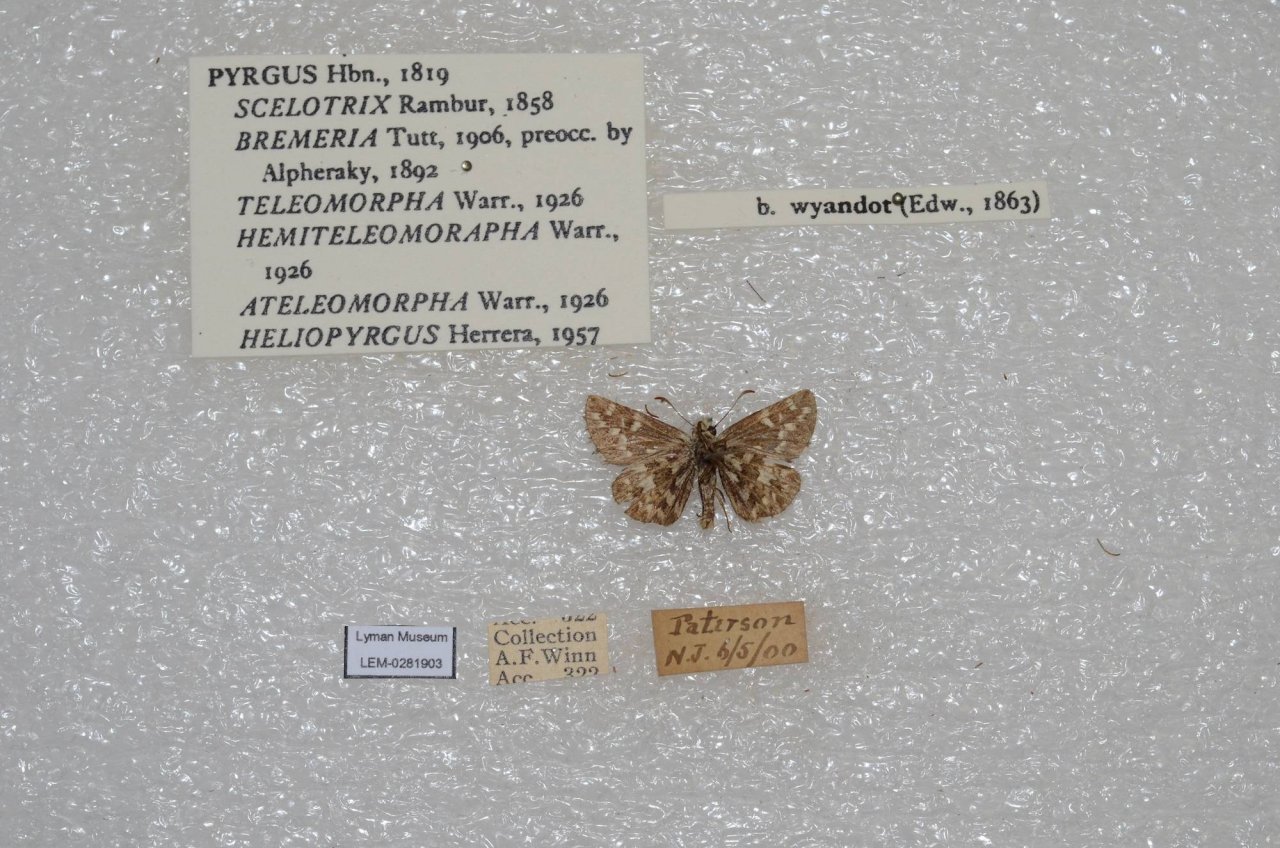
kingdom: Animalia
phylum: Arthropoda
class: Insecta
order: Lepidoptera
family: Hesperiidae
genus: Anisochoria
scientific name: Anisochoria pedaliodina
